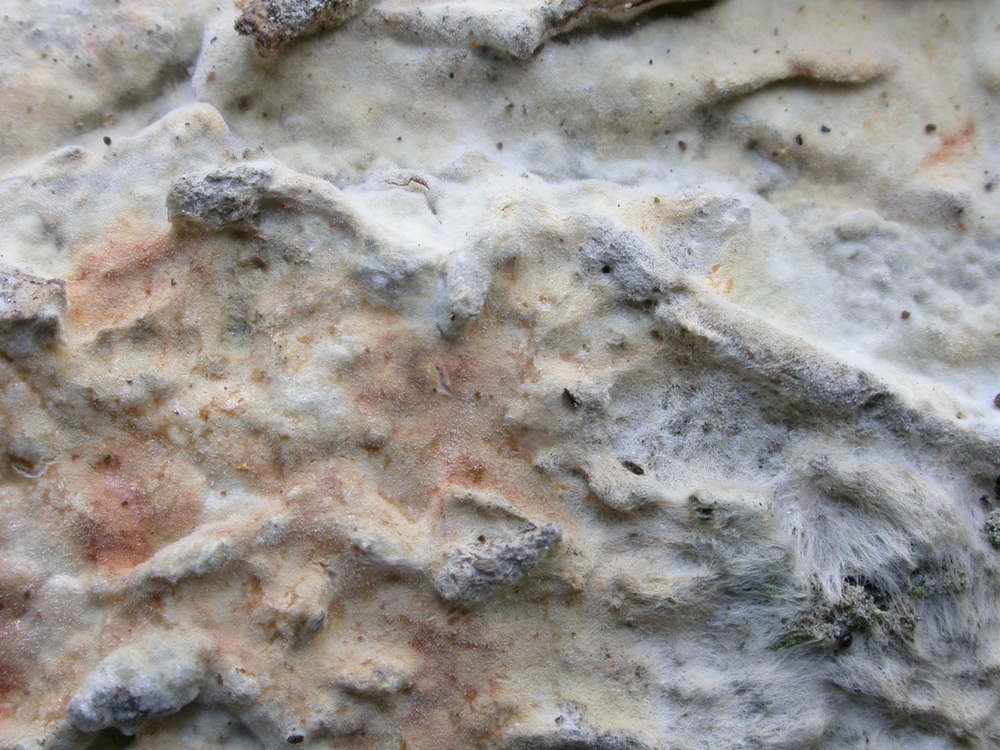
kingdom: Fungi
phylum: Basidiomycota
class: Agaricomycetes
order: Polyporales
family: Phanerochaetaceae
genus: Phanerochaete
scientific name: Phanerochaete velutina
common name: dunet randtråd
